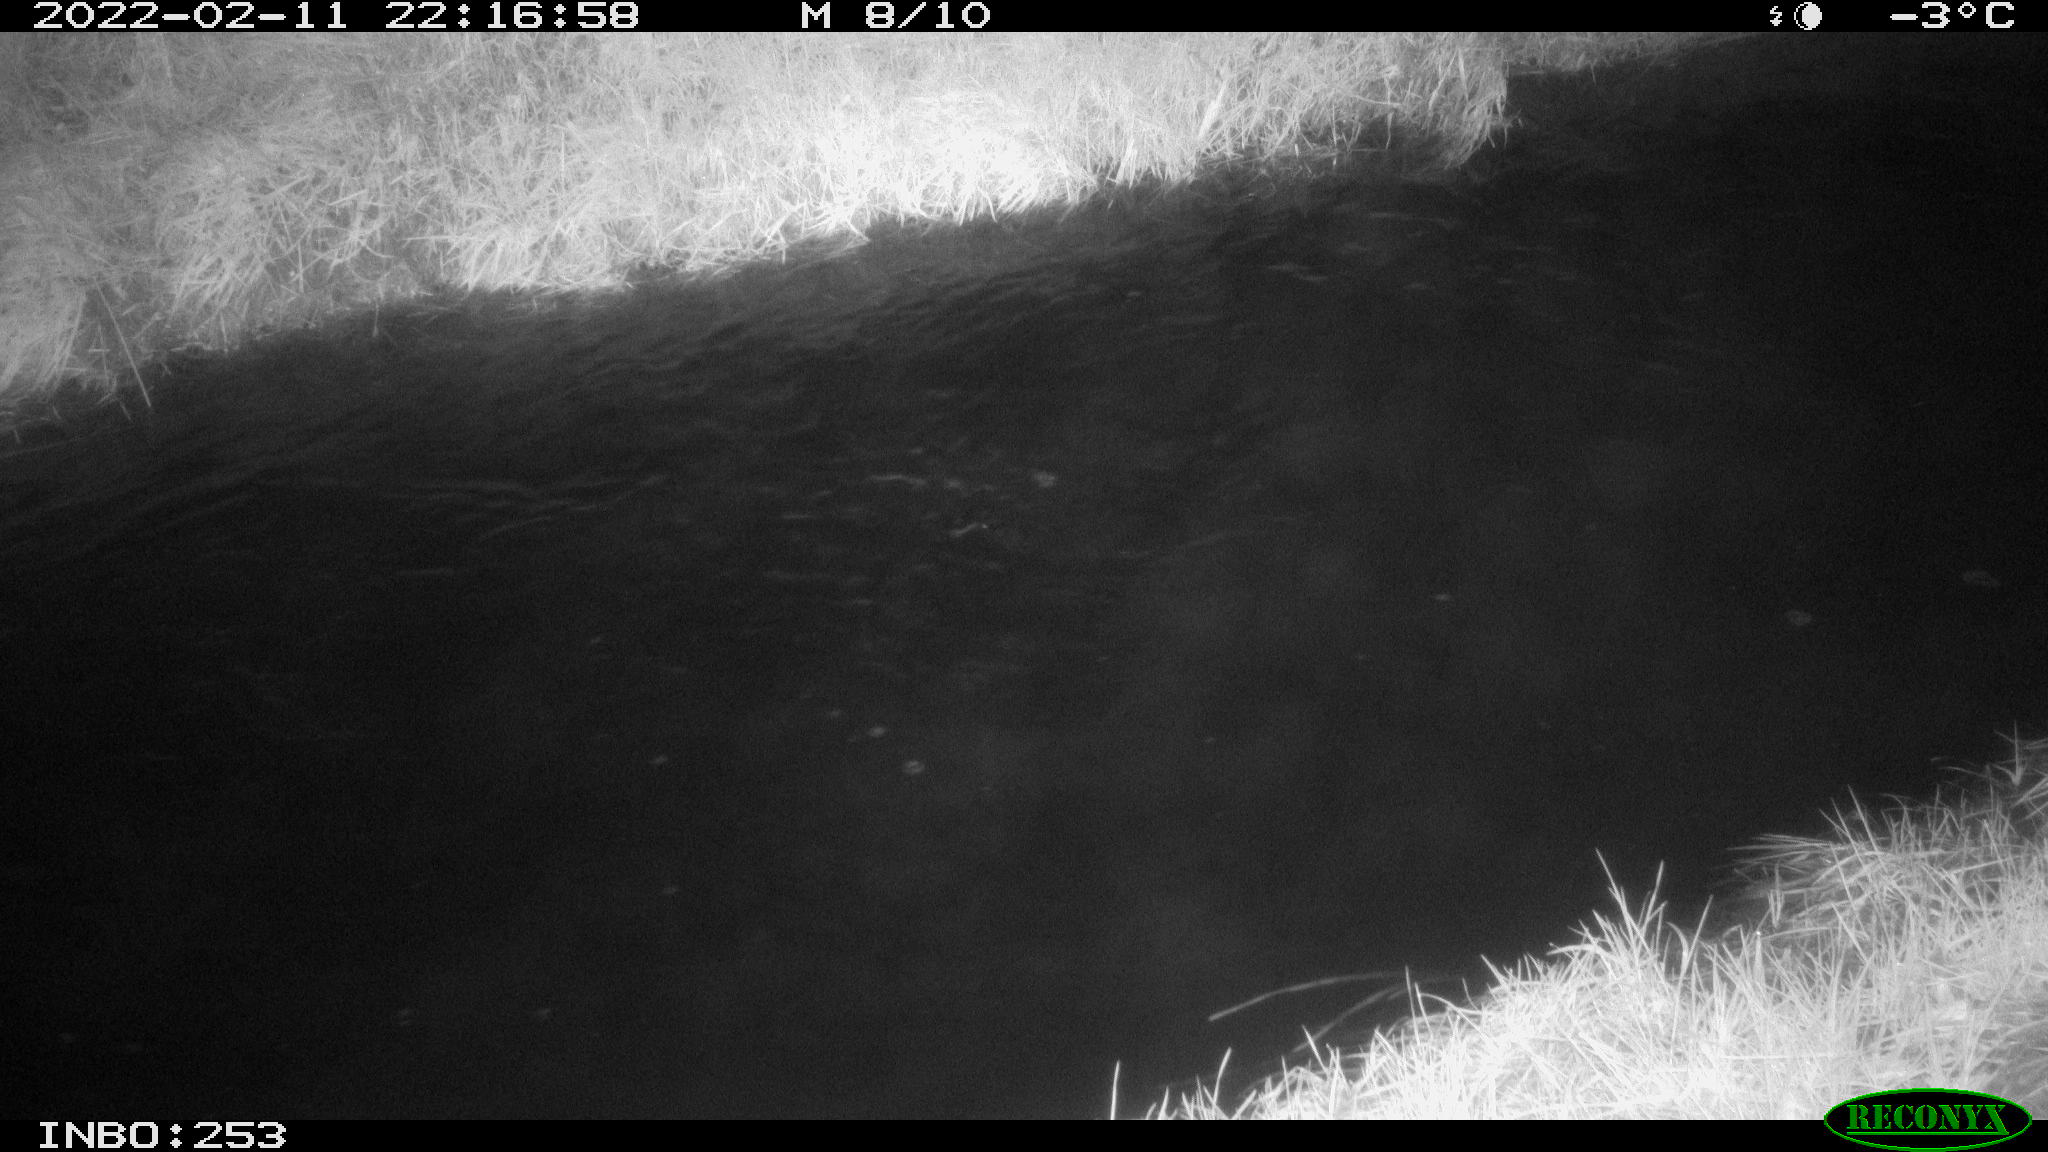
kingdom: Animalia
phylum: Chordata
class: Aves
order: Anseriformes
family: Anatidae
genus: Anas
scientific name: Anas platyrhynchos
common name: Mallard
